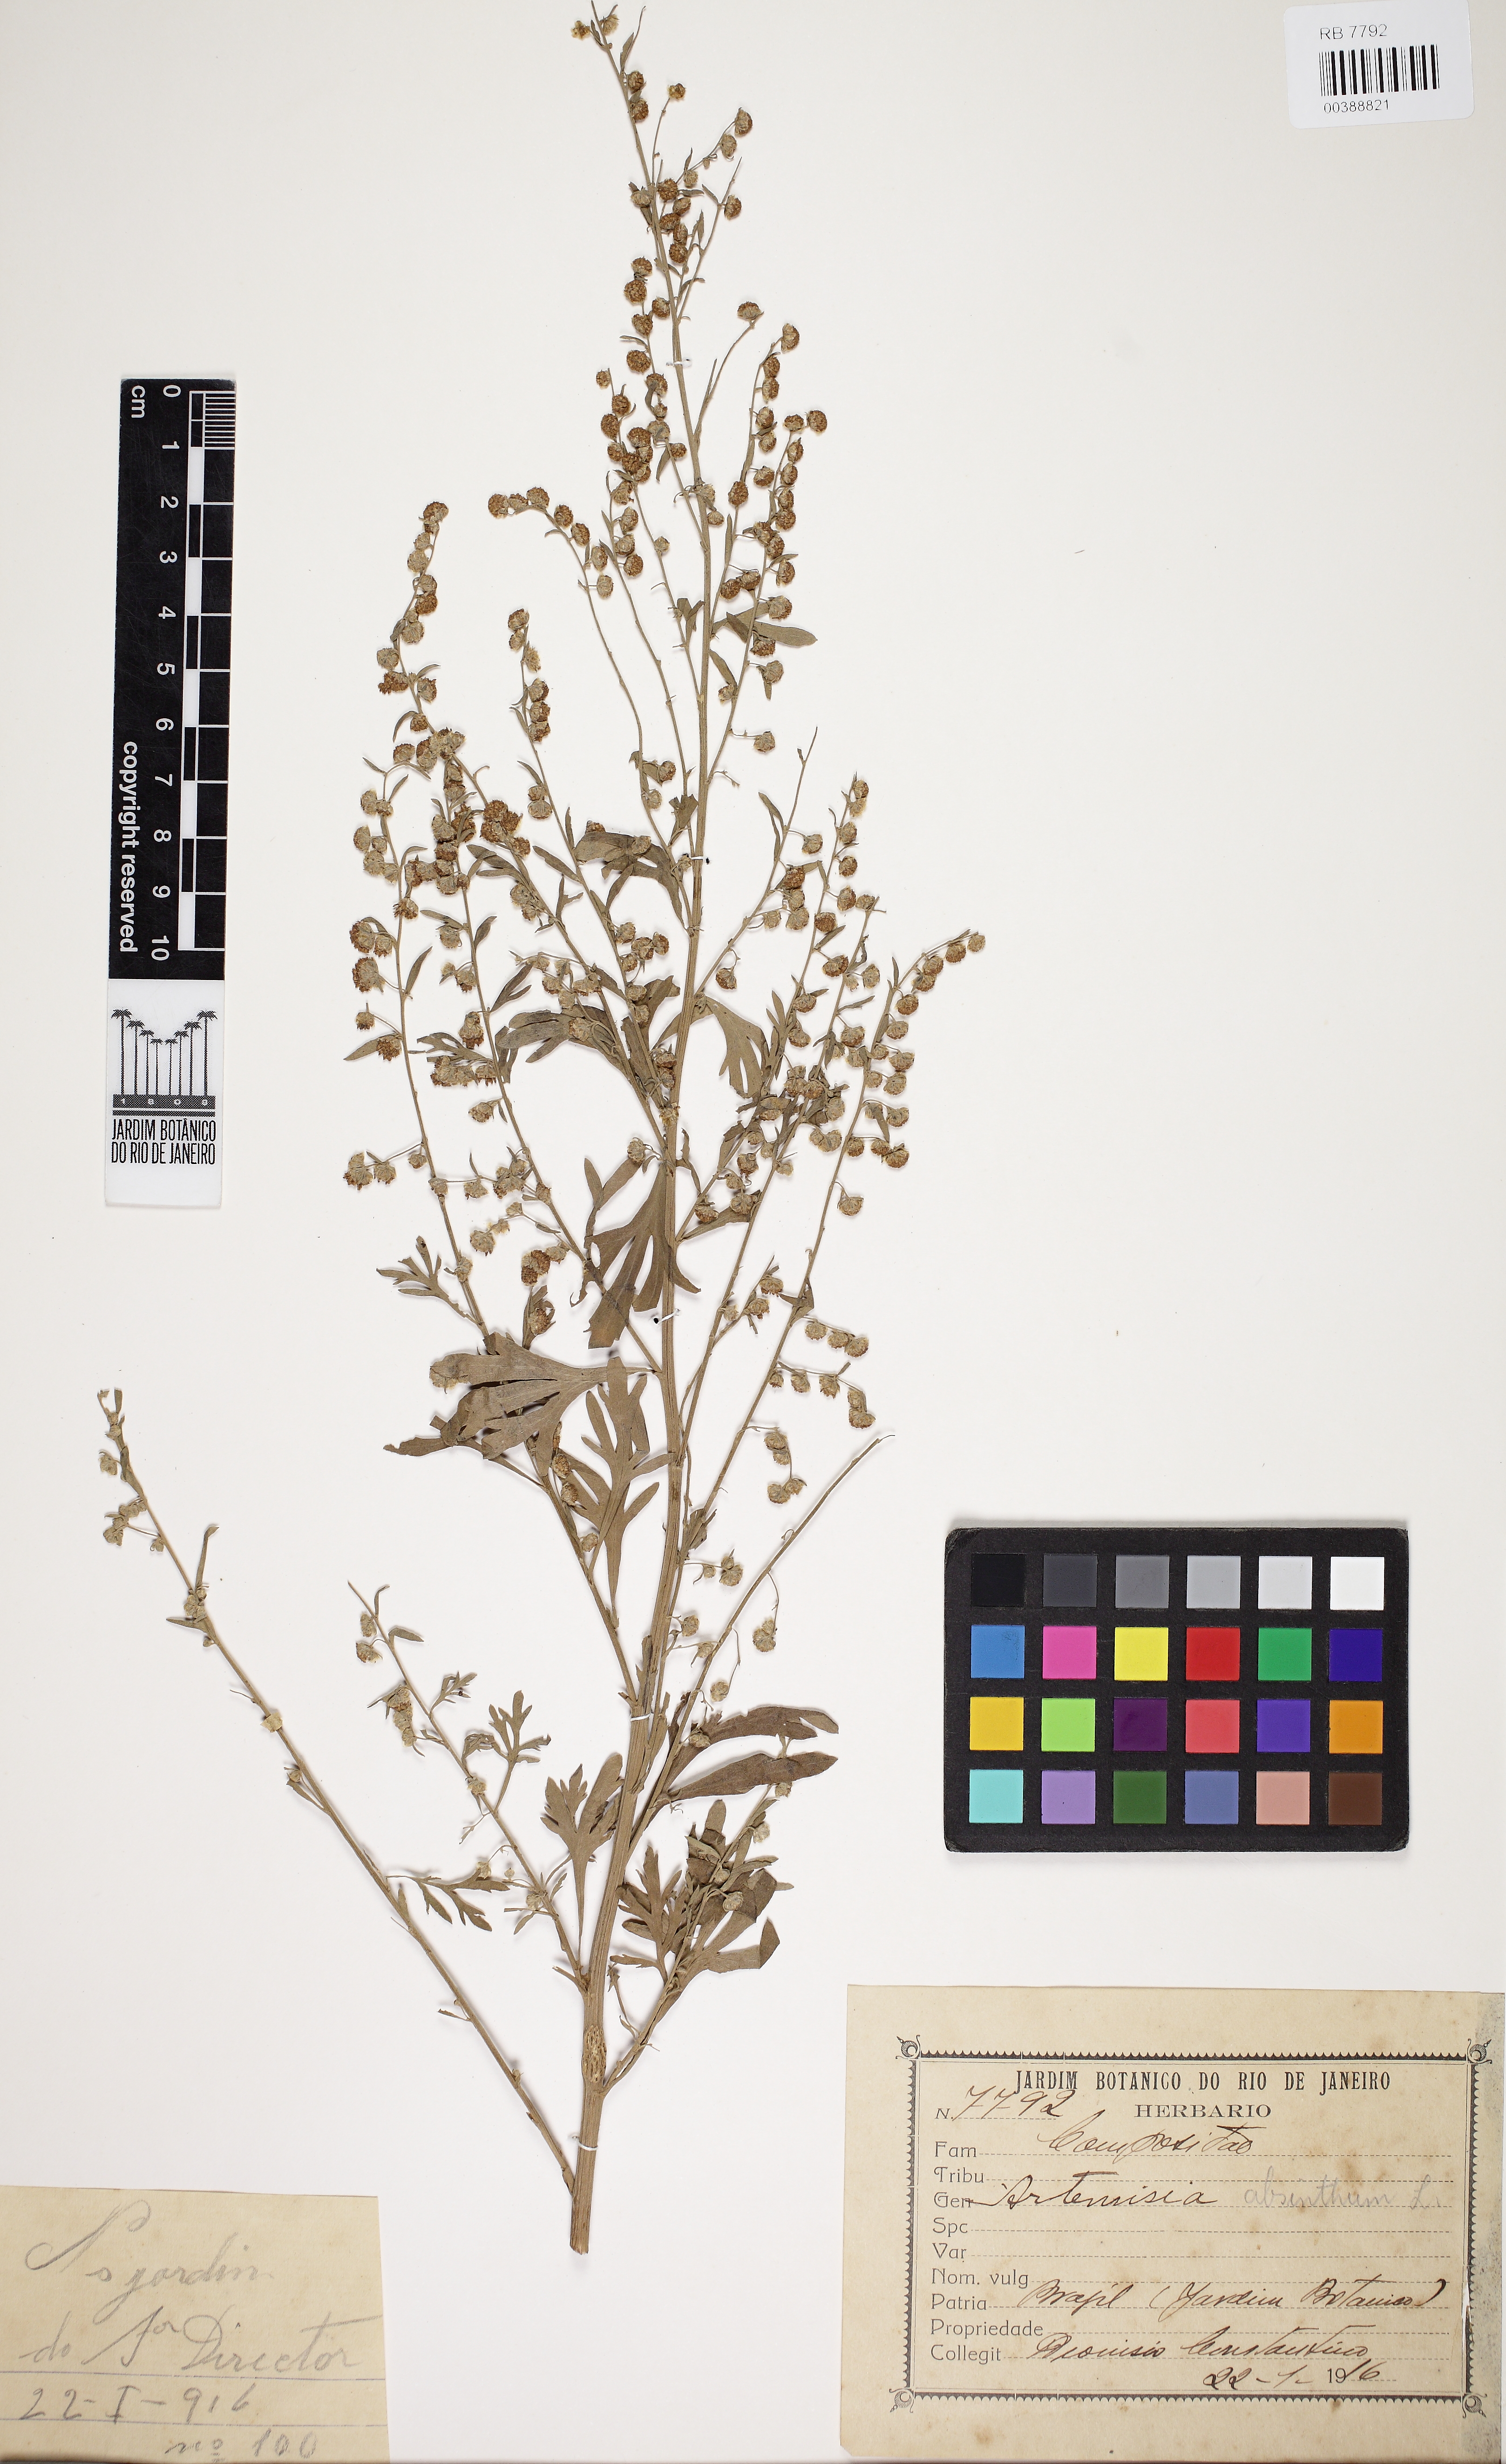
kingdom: Plantae
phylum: Tracheophyta
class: Magnoliopsida
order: Asterales
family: Asteraceae
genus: Artemisia
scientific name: Artemisia absinthium
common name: Wormwood
